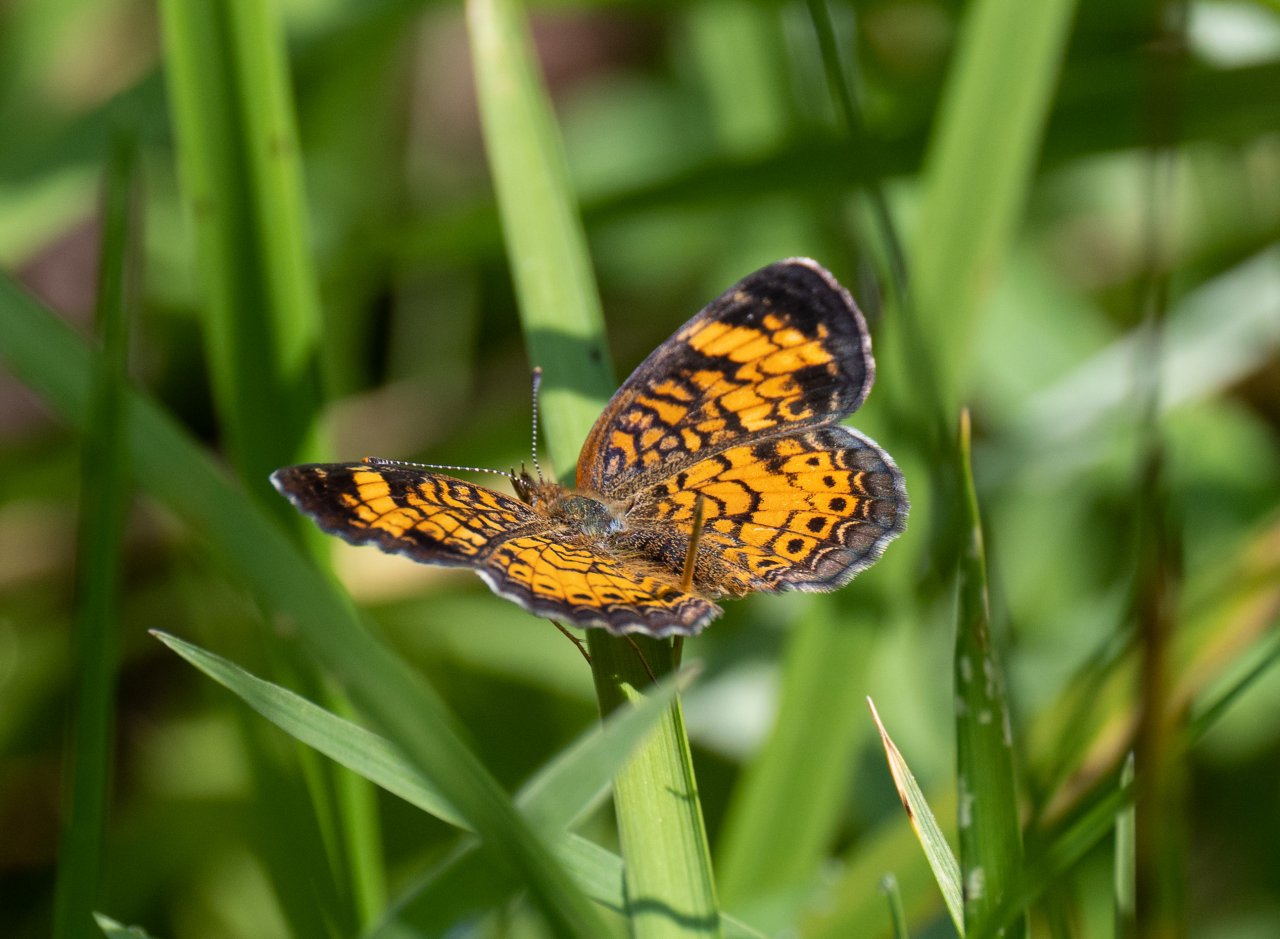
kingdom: Animalia
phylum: Arthropoda
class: Insecta
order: Lepidoptera
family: Nymphalidae
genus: Phyciodes
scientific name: Phyciodes tharos
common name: Pearl Crescent
